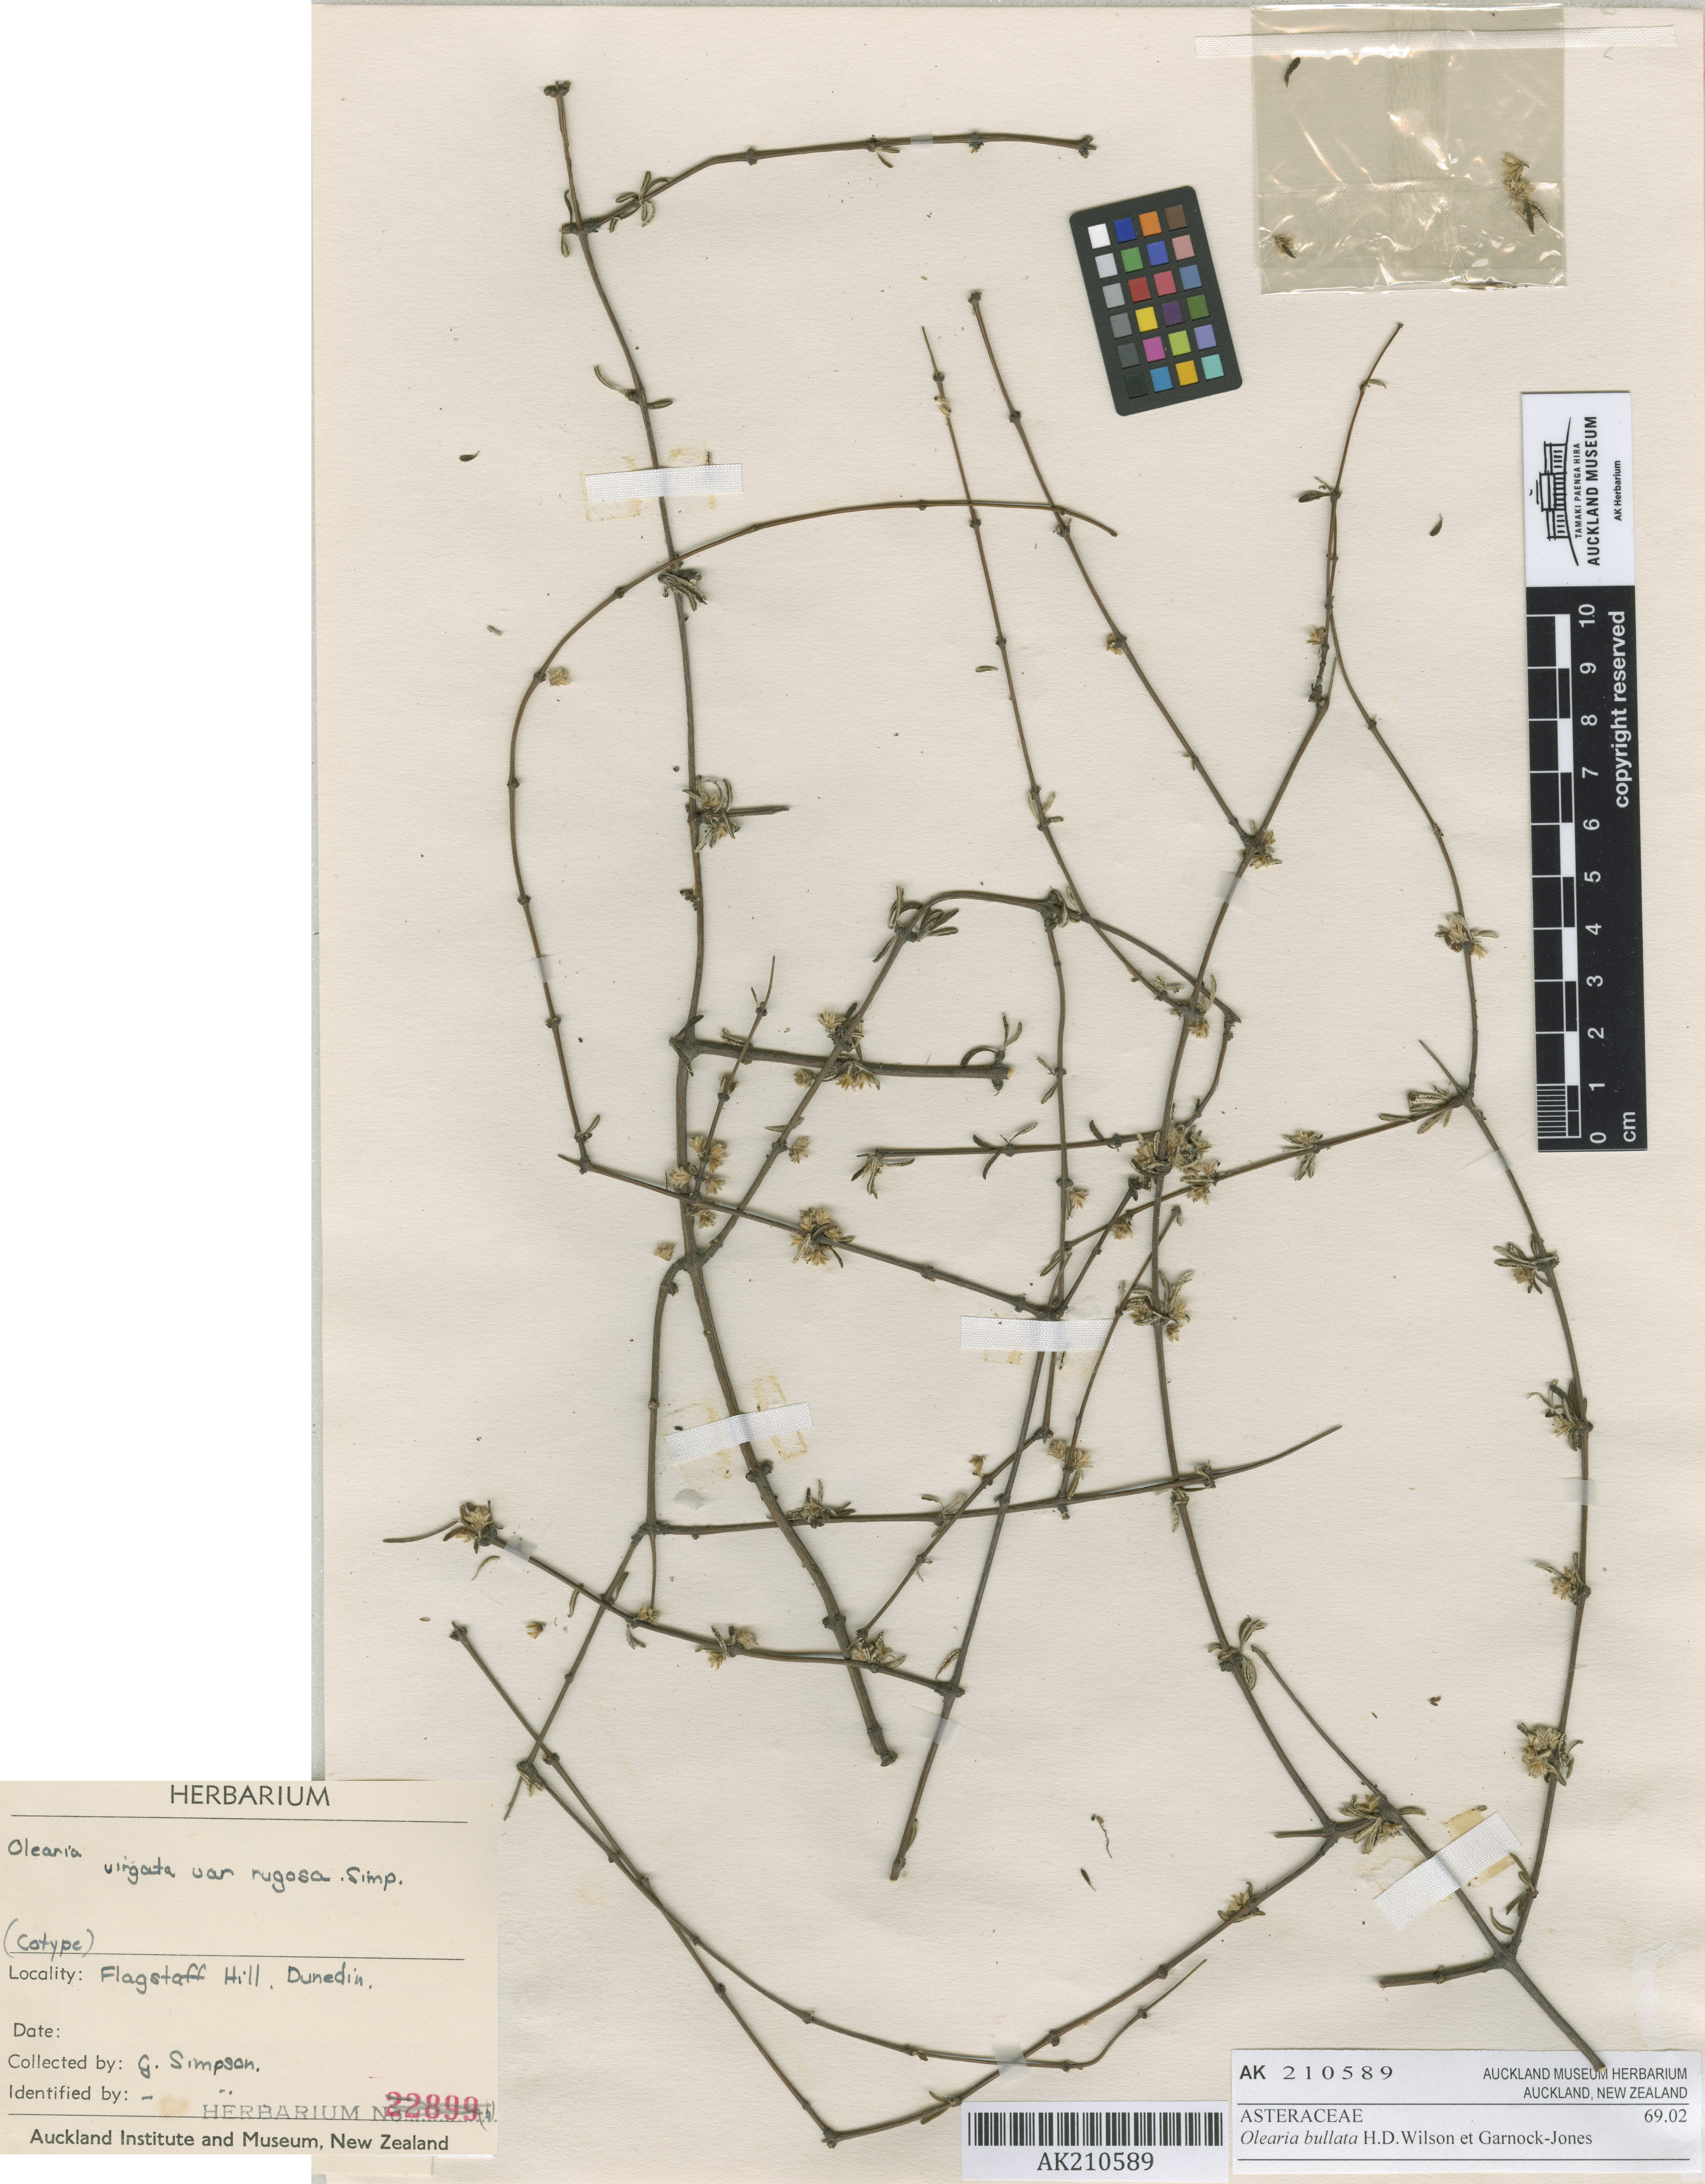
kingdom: Plantae
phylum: Tracheophyta
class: Magnoliopsida
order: Asterales
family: Asteraceae
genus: Olearia
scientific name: Olearia bullata
